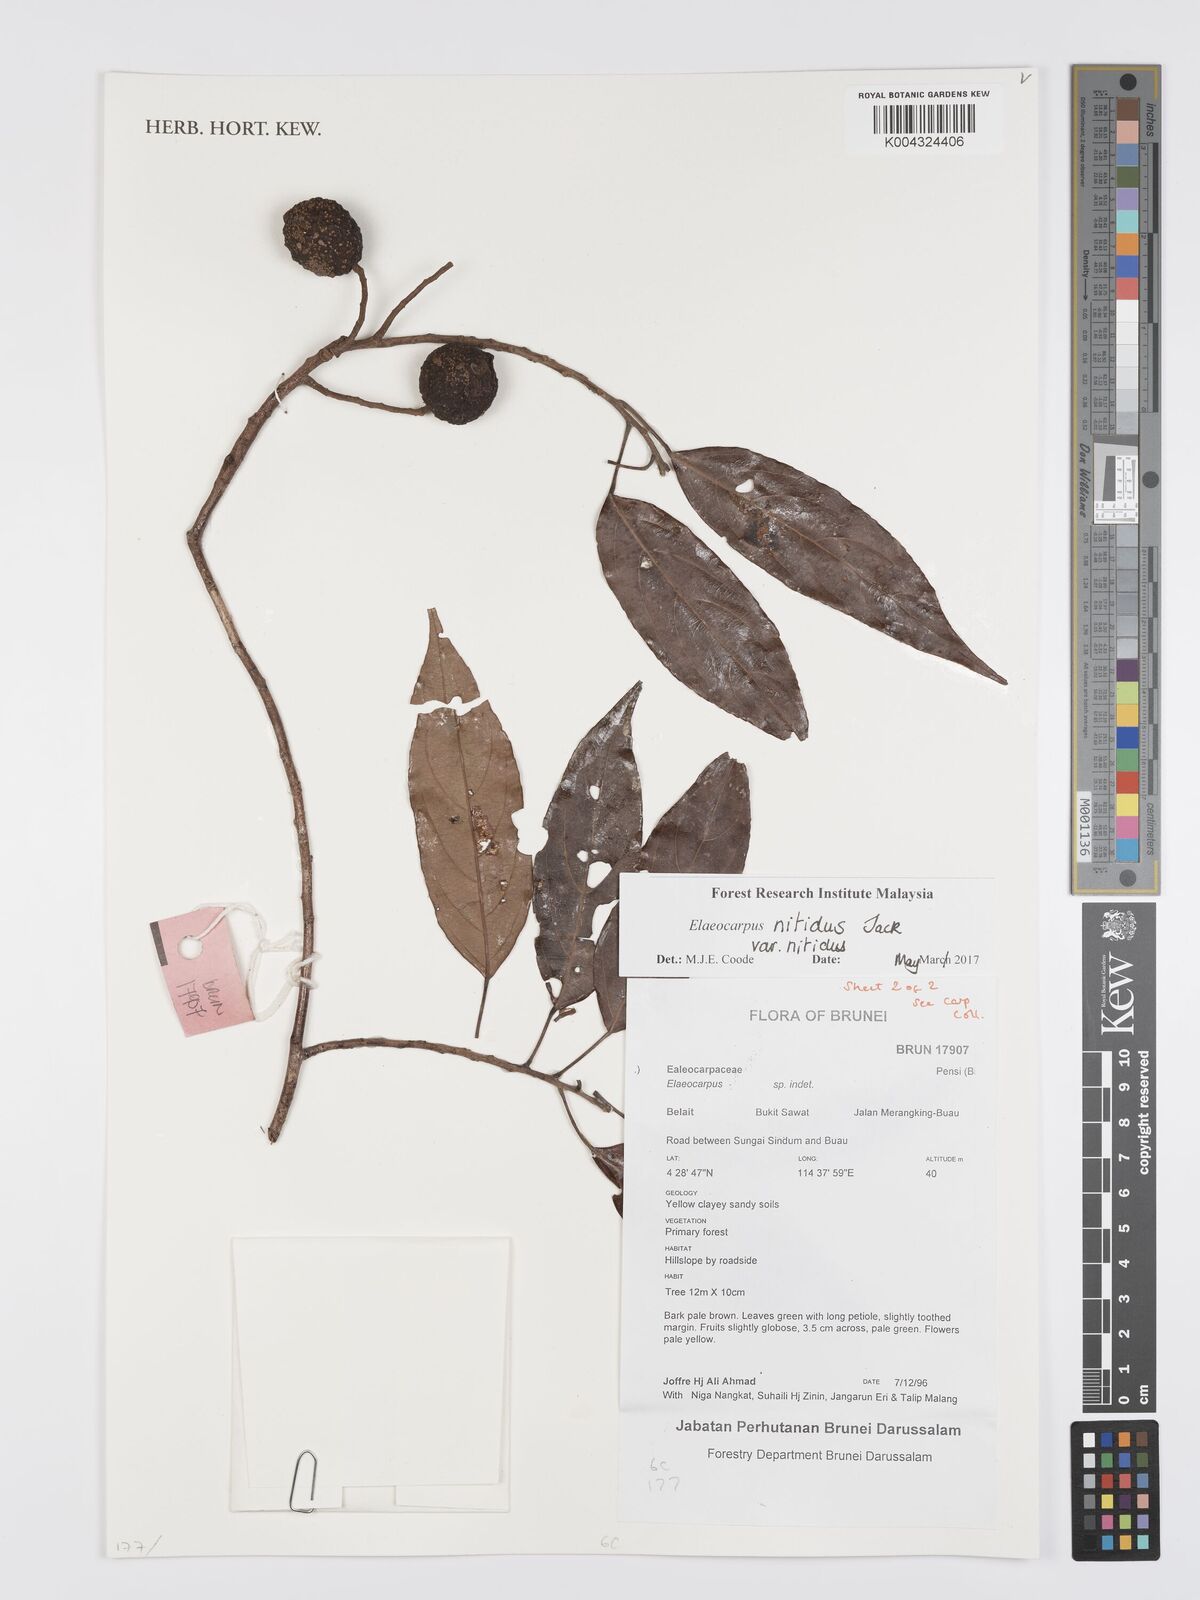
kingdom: Plantae
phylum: Tracheophyta
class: Magnoliopsida
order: Oxalidales
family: Elaeocarpaceae
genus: Elaeocarpus
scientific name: Elaeocarpus nitidus
